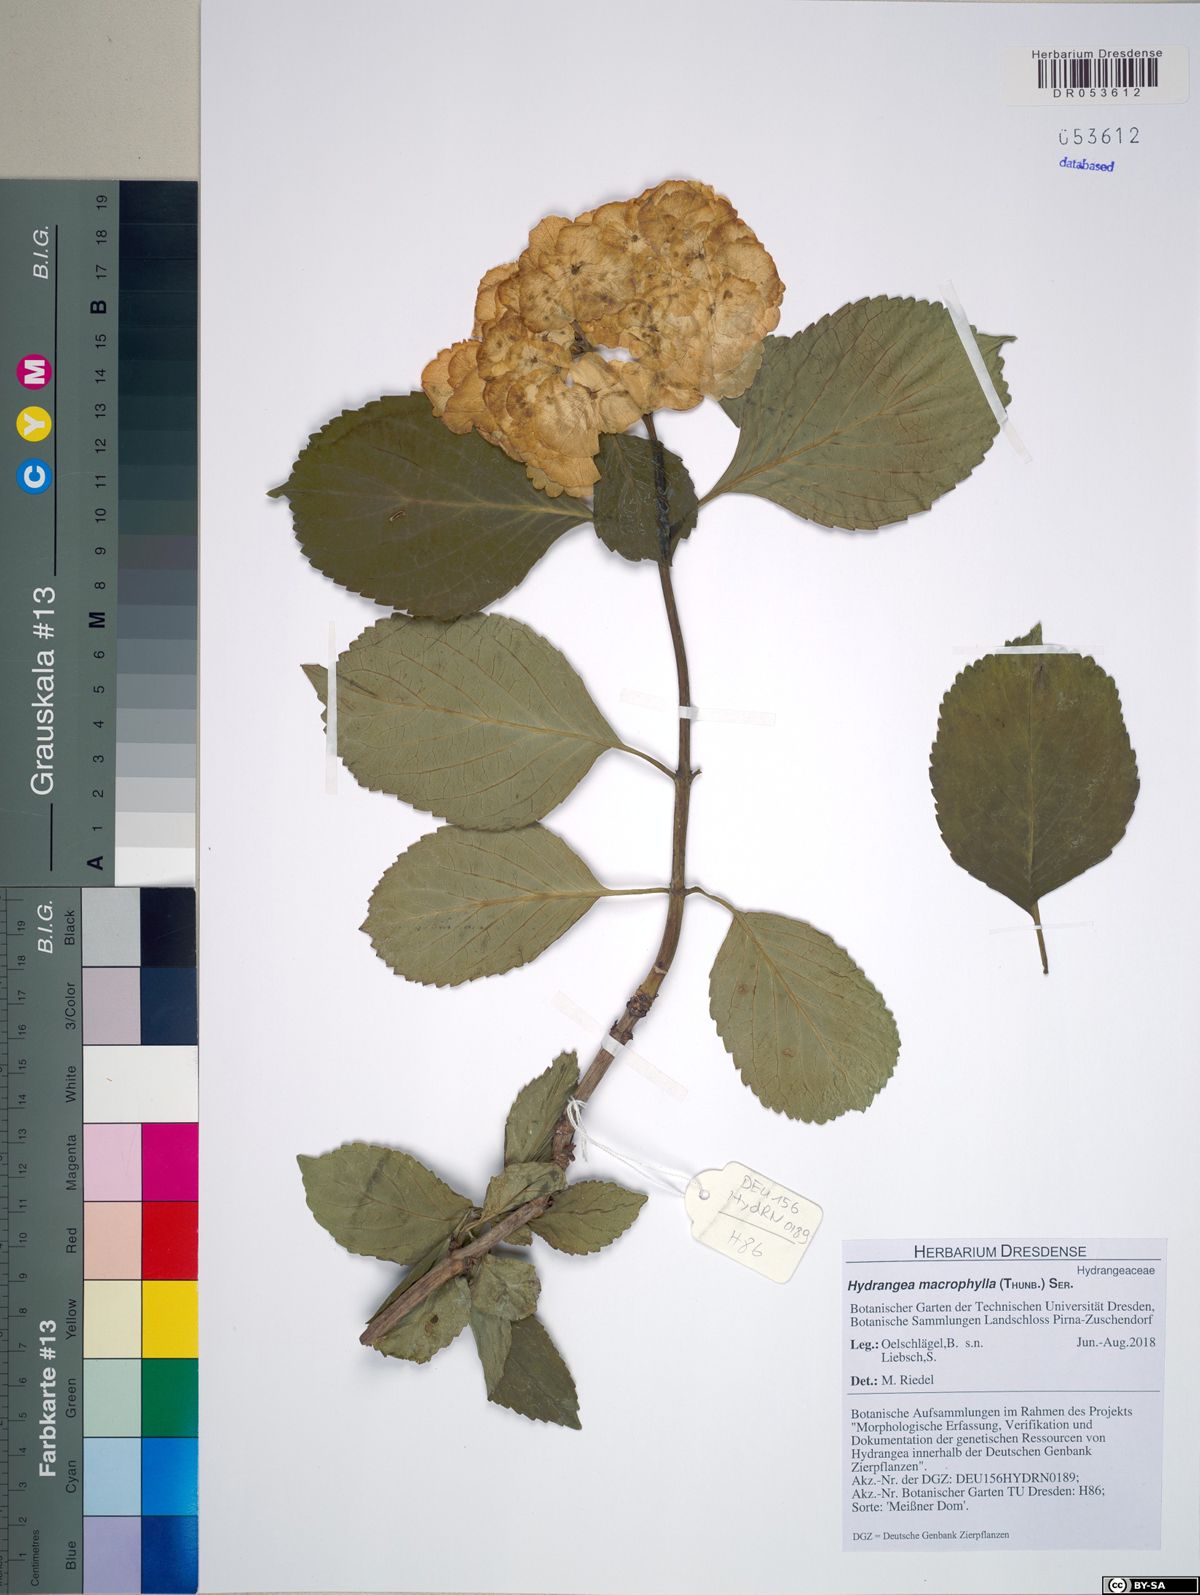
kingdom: Plantae
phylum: Tracheophyta
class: Magnoliopsida
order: Cornales
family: Hydrangeaceae
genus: Hydrangea
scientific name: Hydrangea macrophylla
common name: Hydrangea
